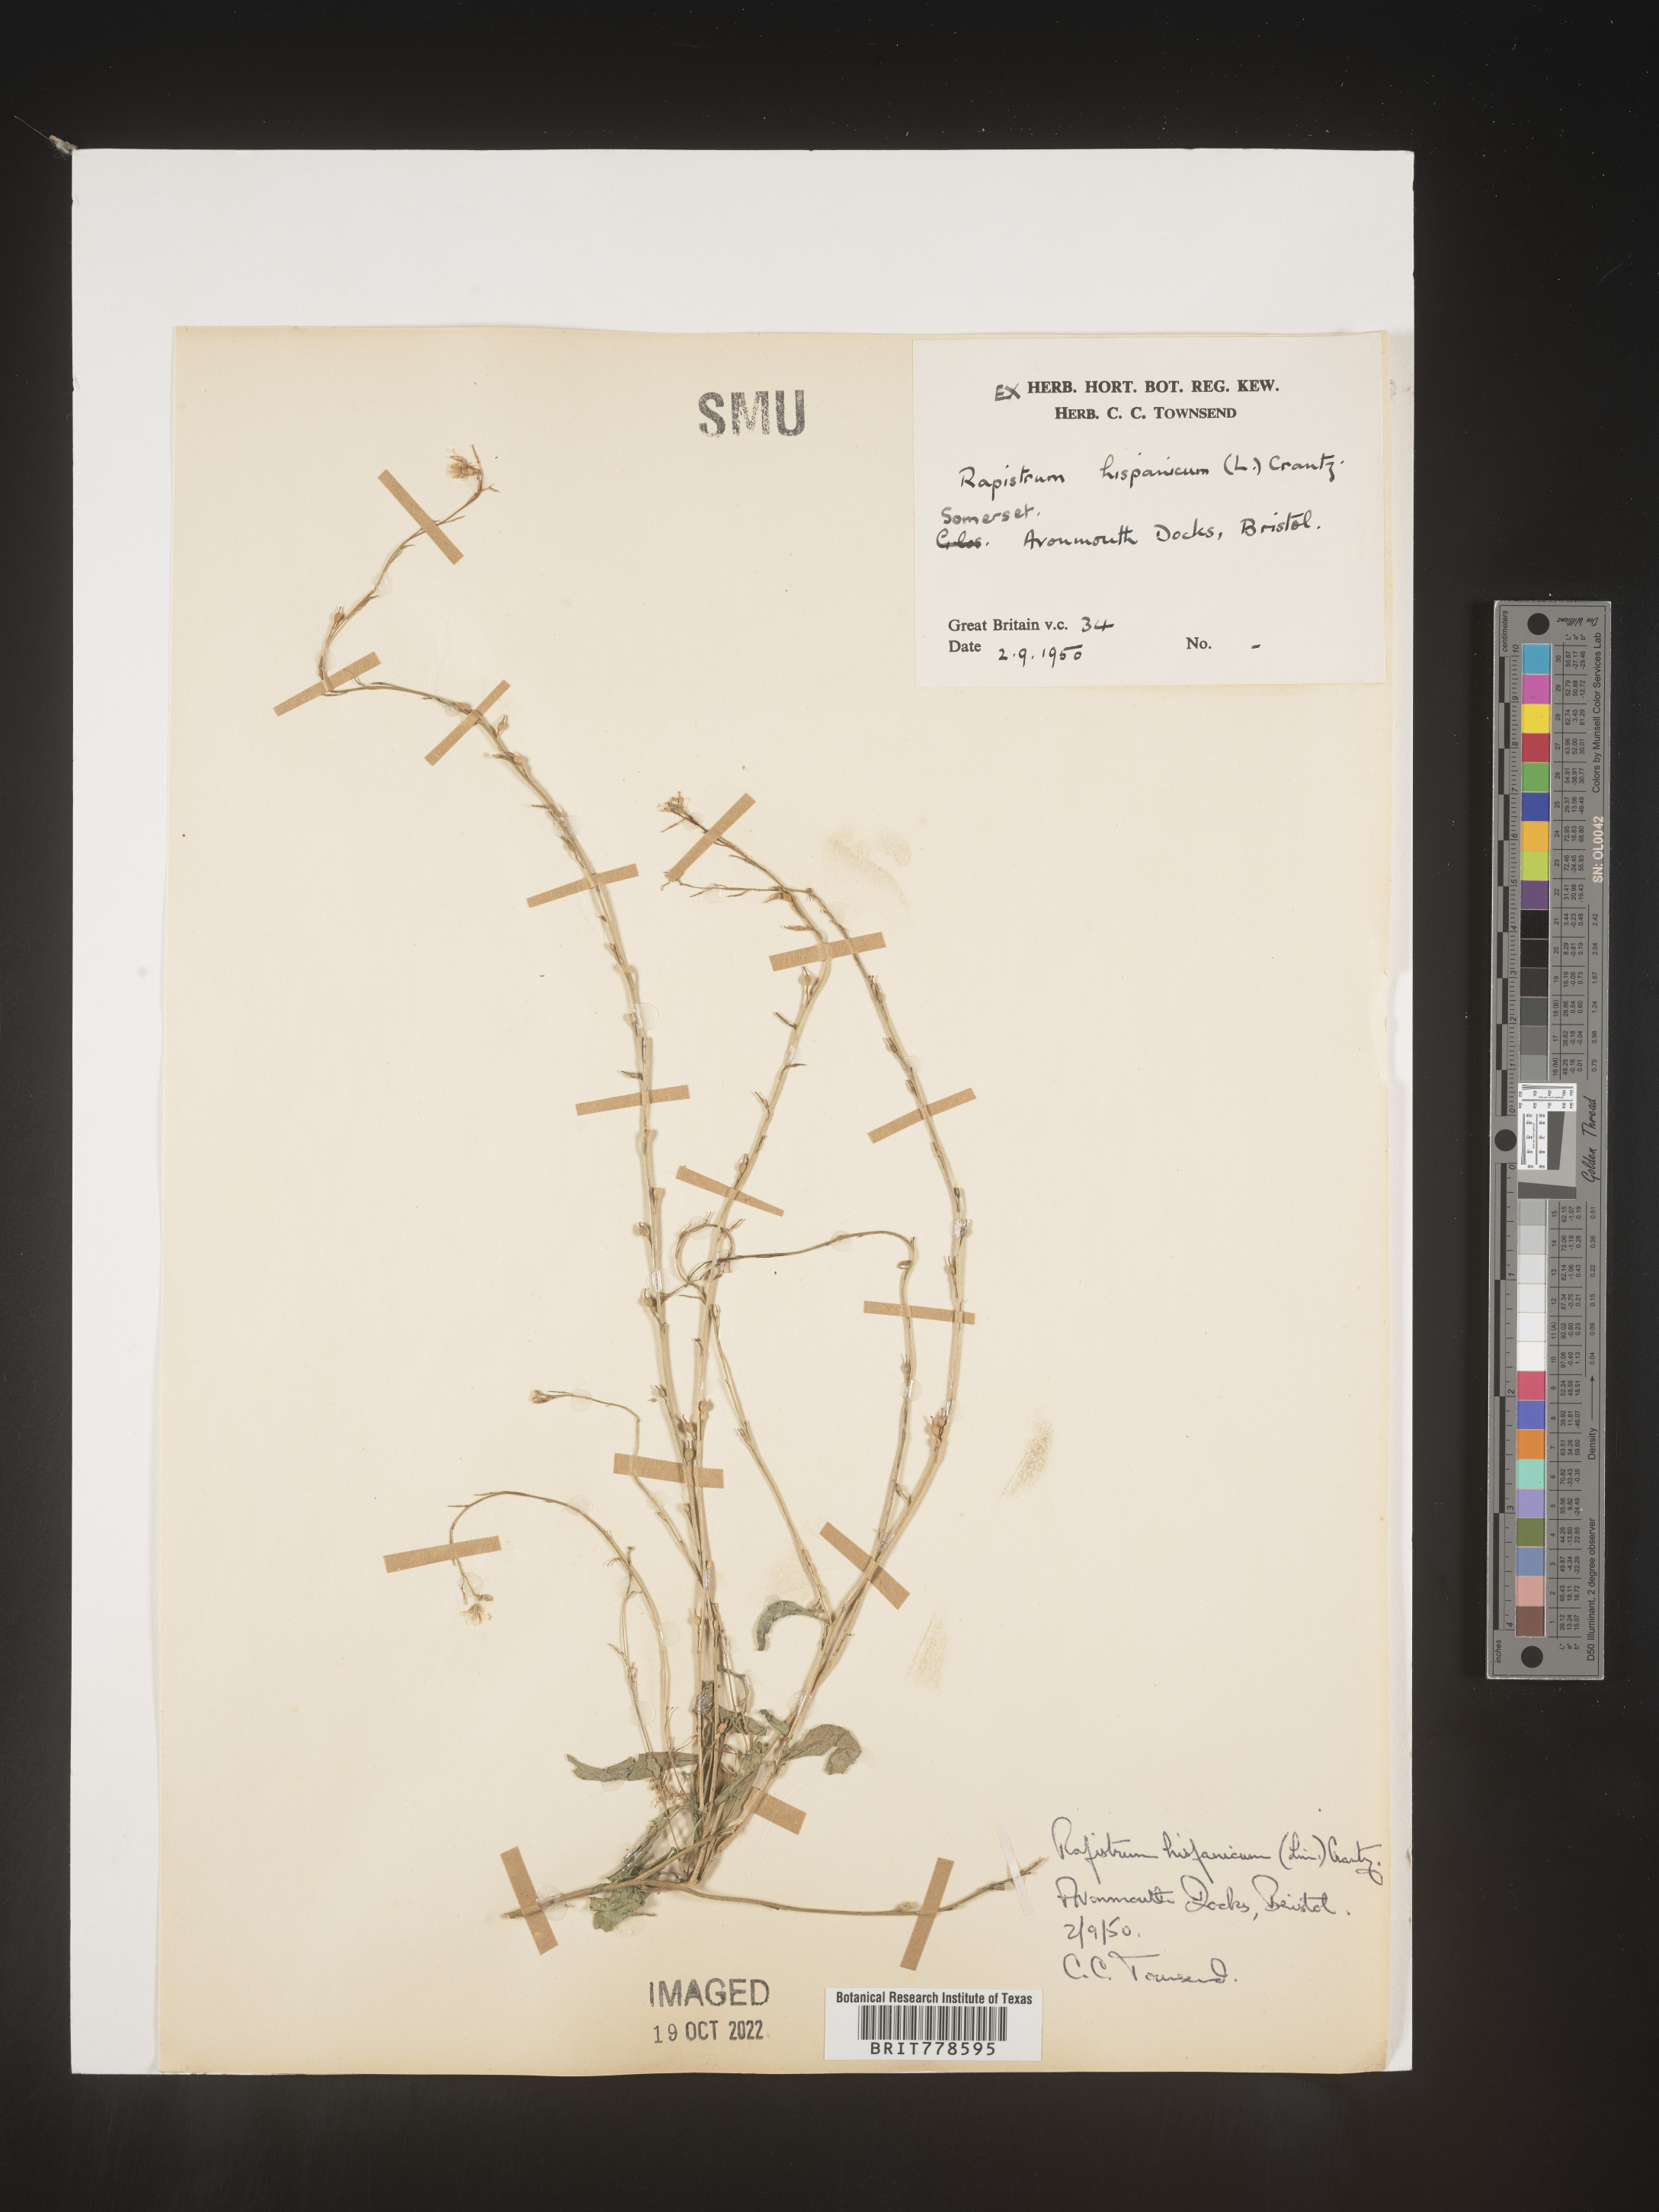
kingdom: Plantae
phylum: Tracheophyta
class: Magnoliopsida
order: Brassicales
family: Brassicaceae
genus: Rapistrum
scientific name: Rapistrum
